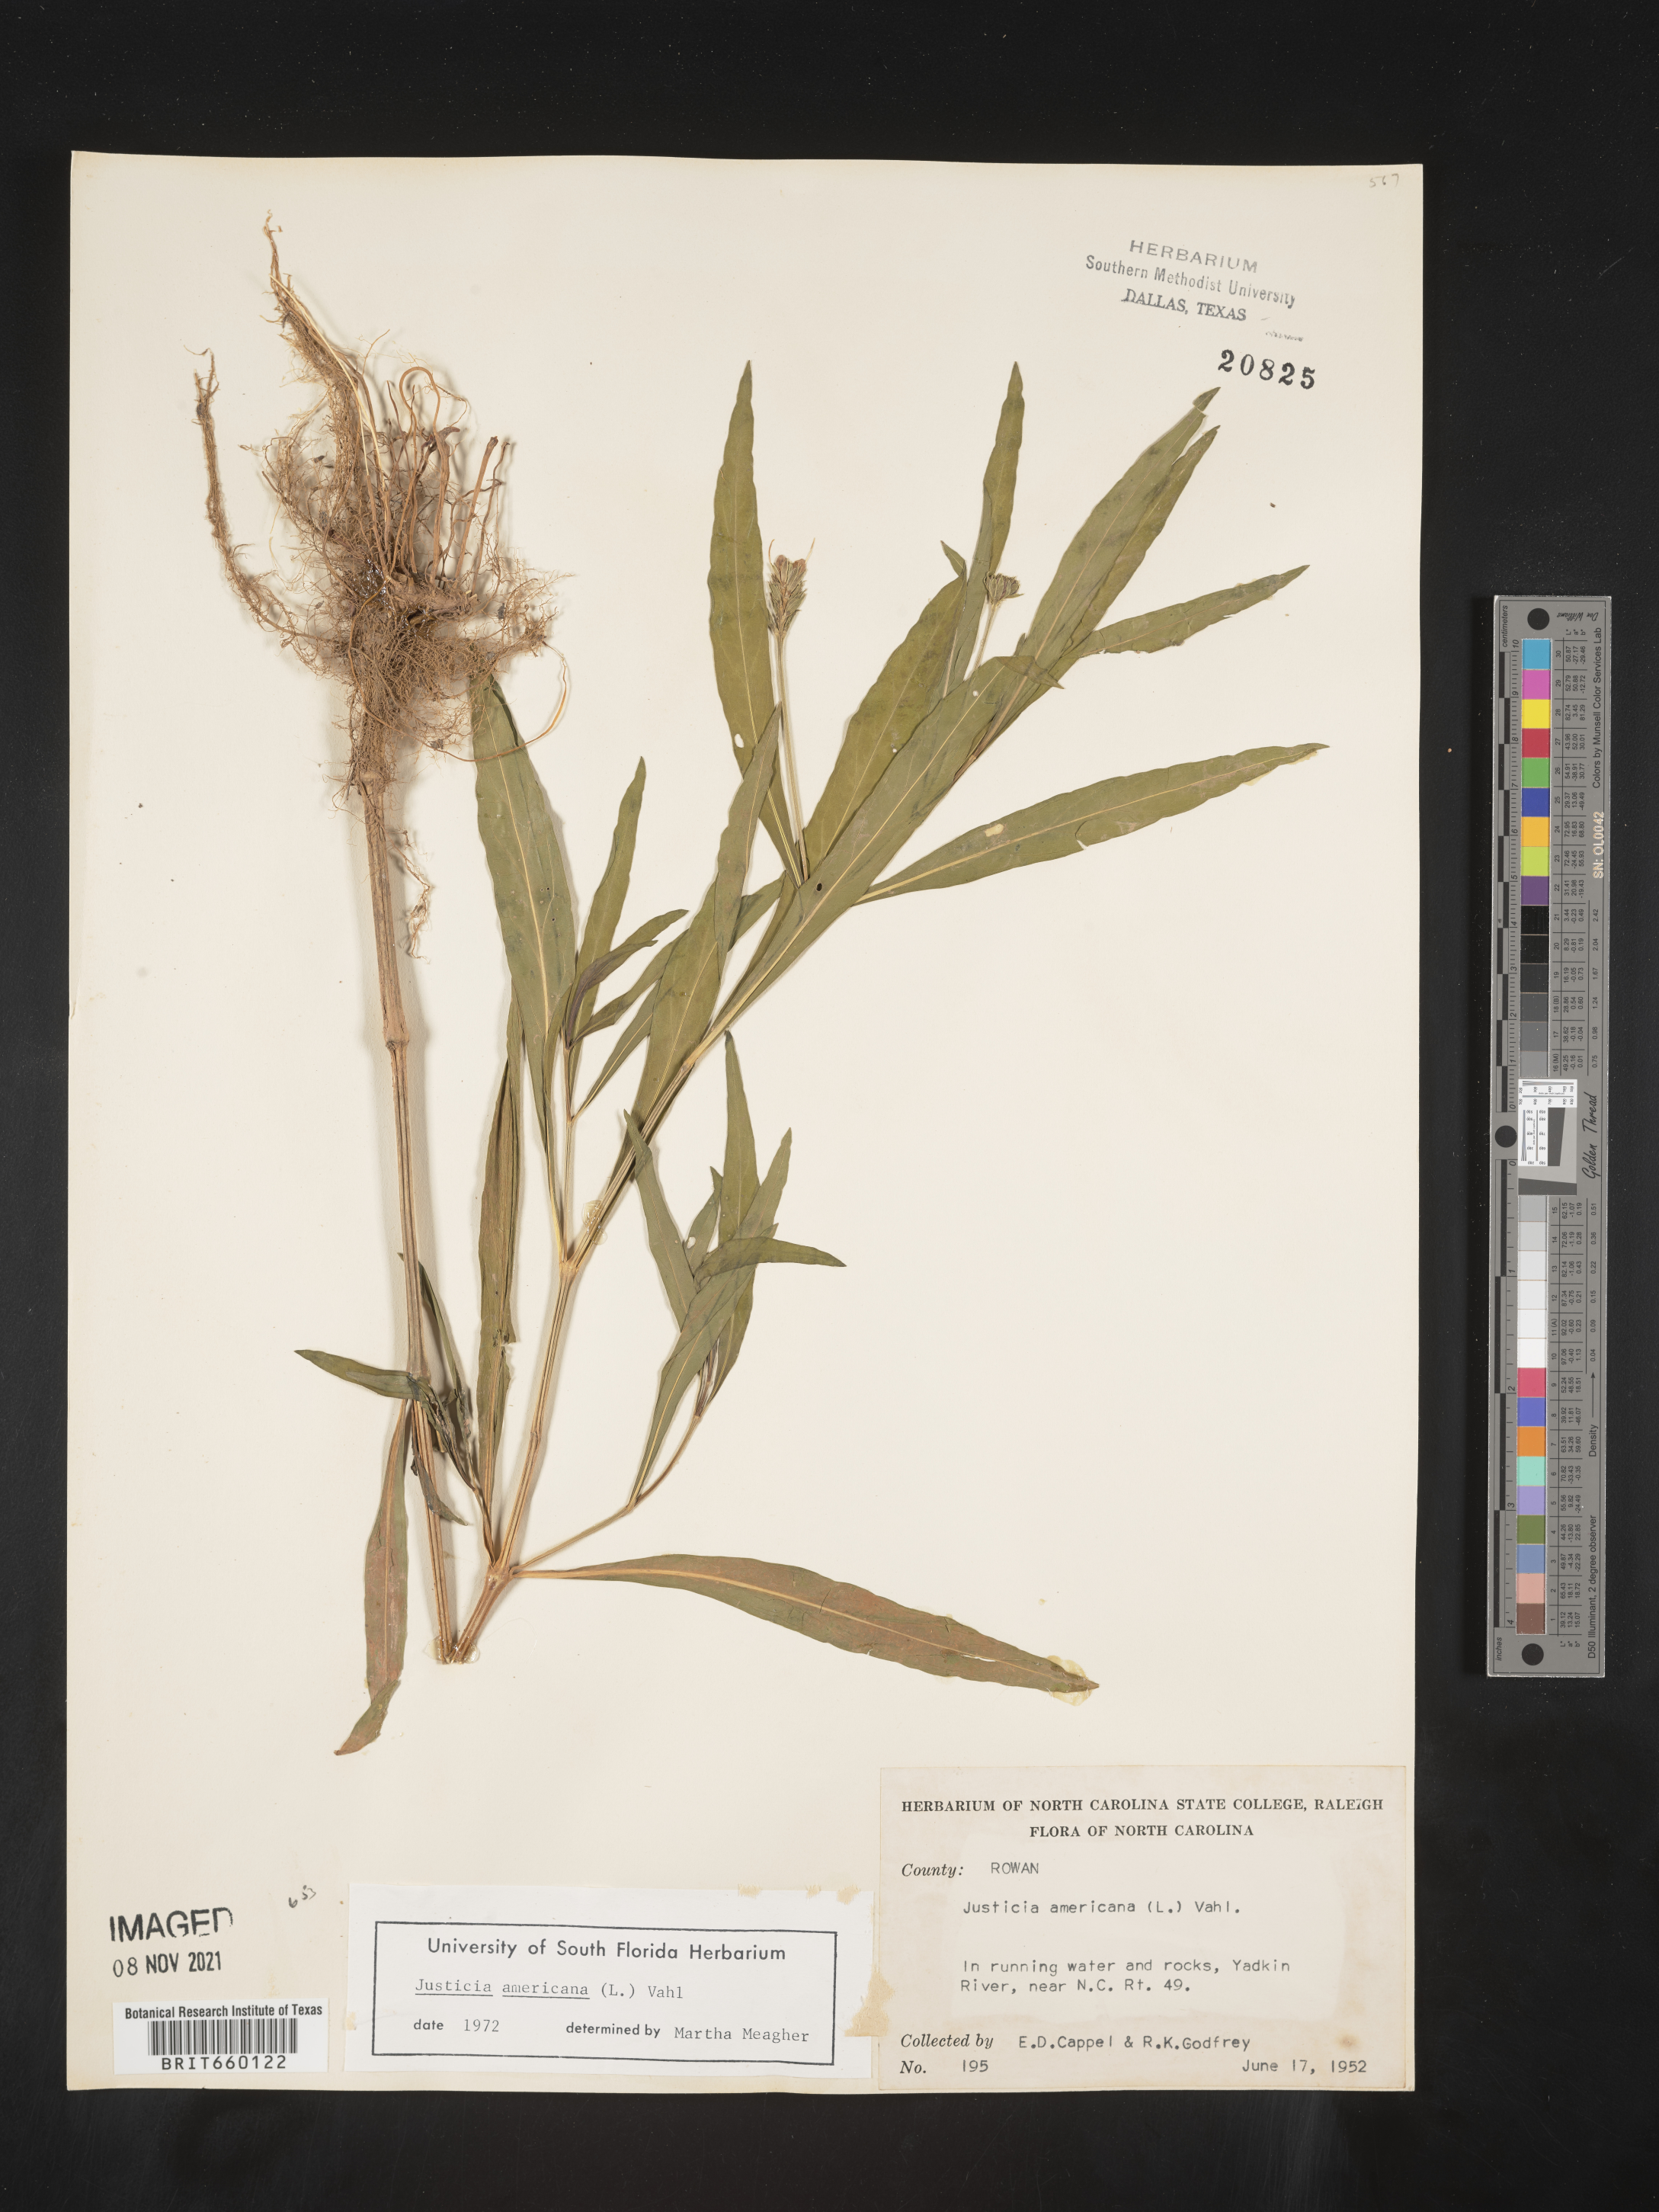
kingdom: Plantae
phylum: Tracheophyta
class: Magnoliopsida
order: Lamiales
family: Acanthaceae
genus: Dianthera
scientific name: Dianthera americana
